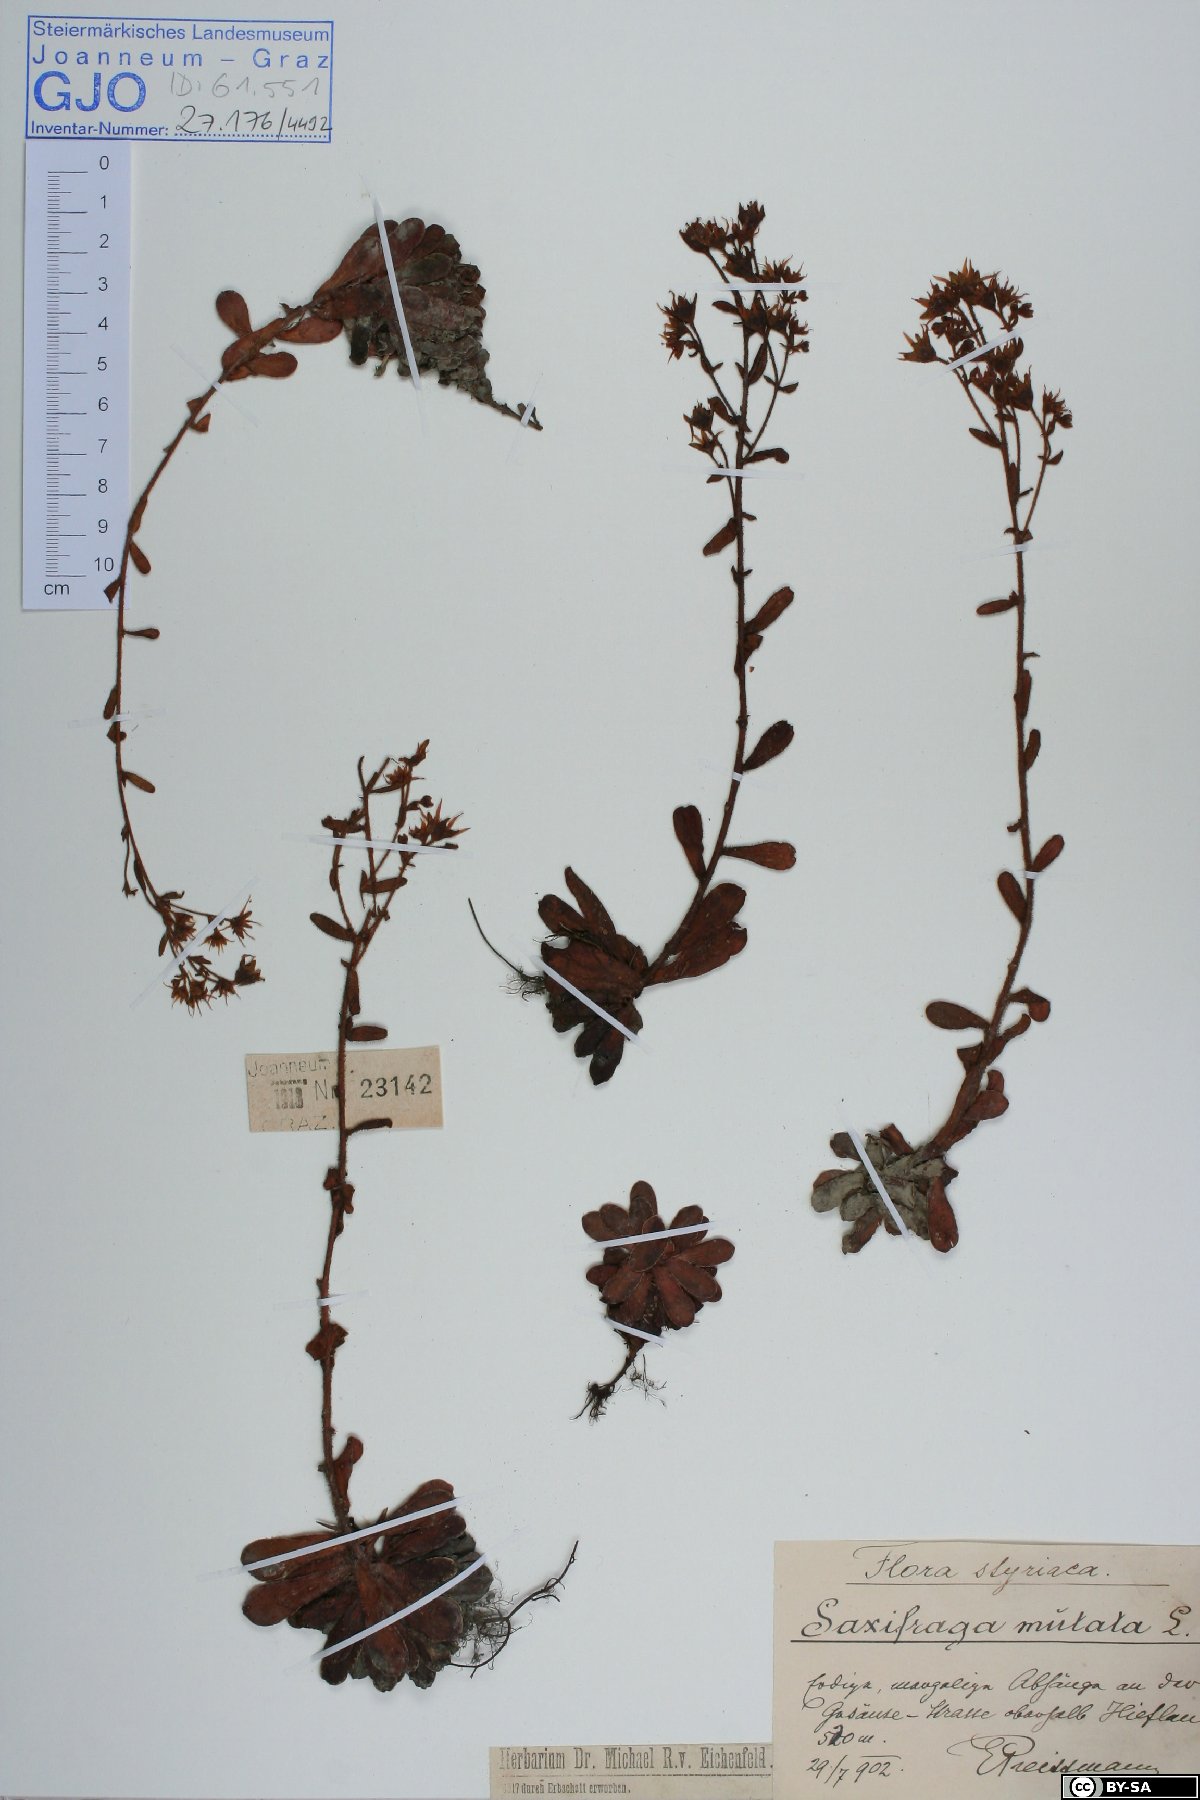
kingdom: Plantae
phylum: Tracheophyta
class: Magnoliopsida
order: Saxifragales
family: Saxifragaceae
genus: Saxifraga
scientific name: Saxifraga mutata
